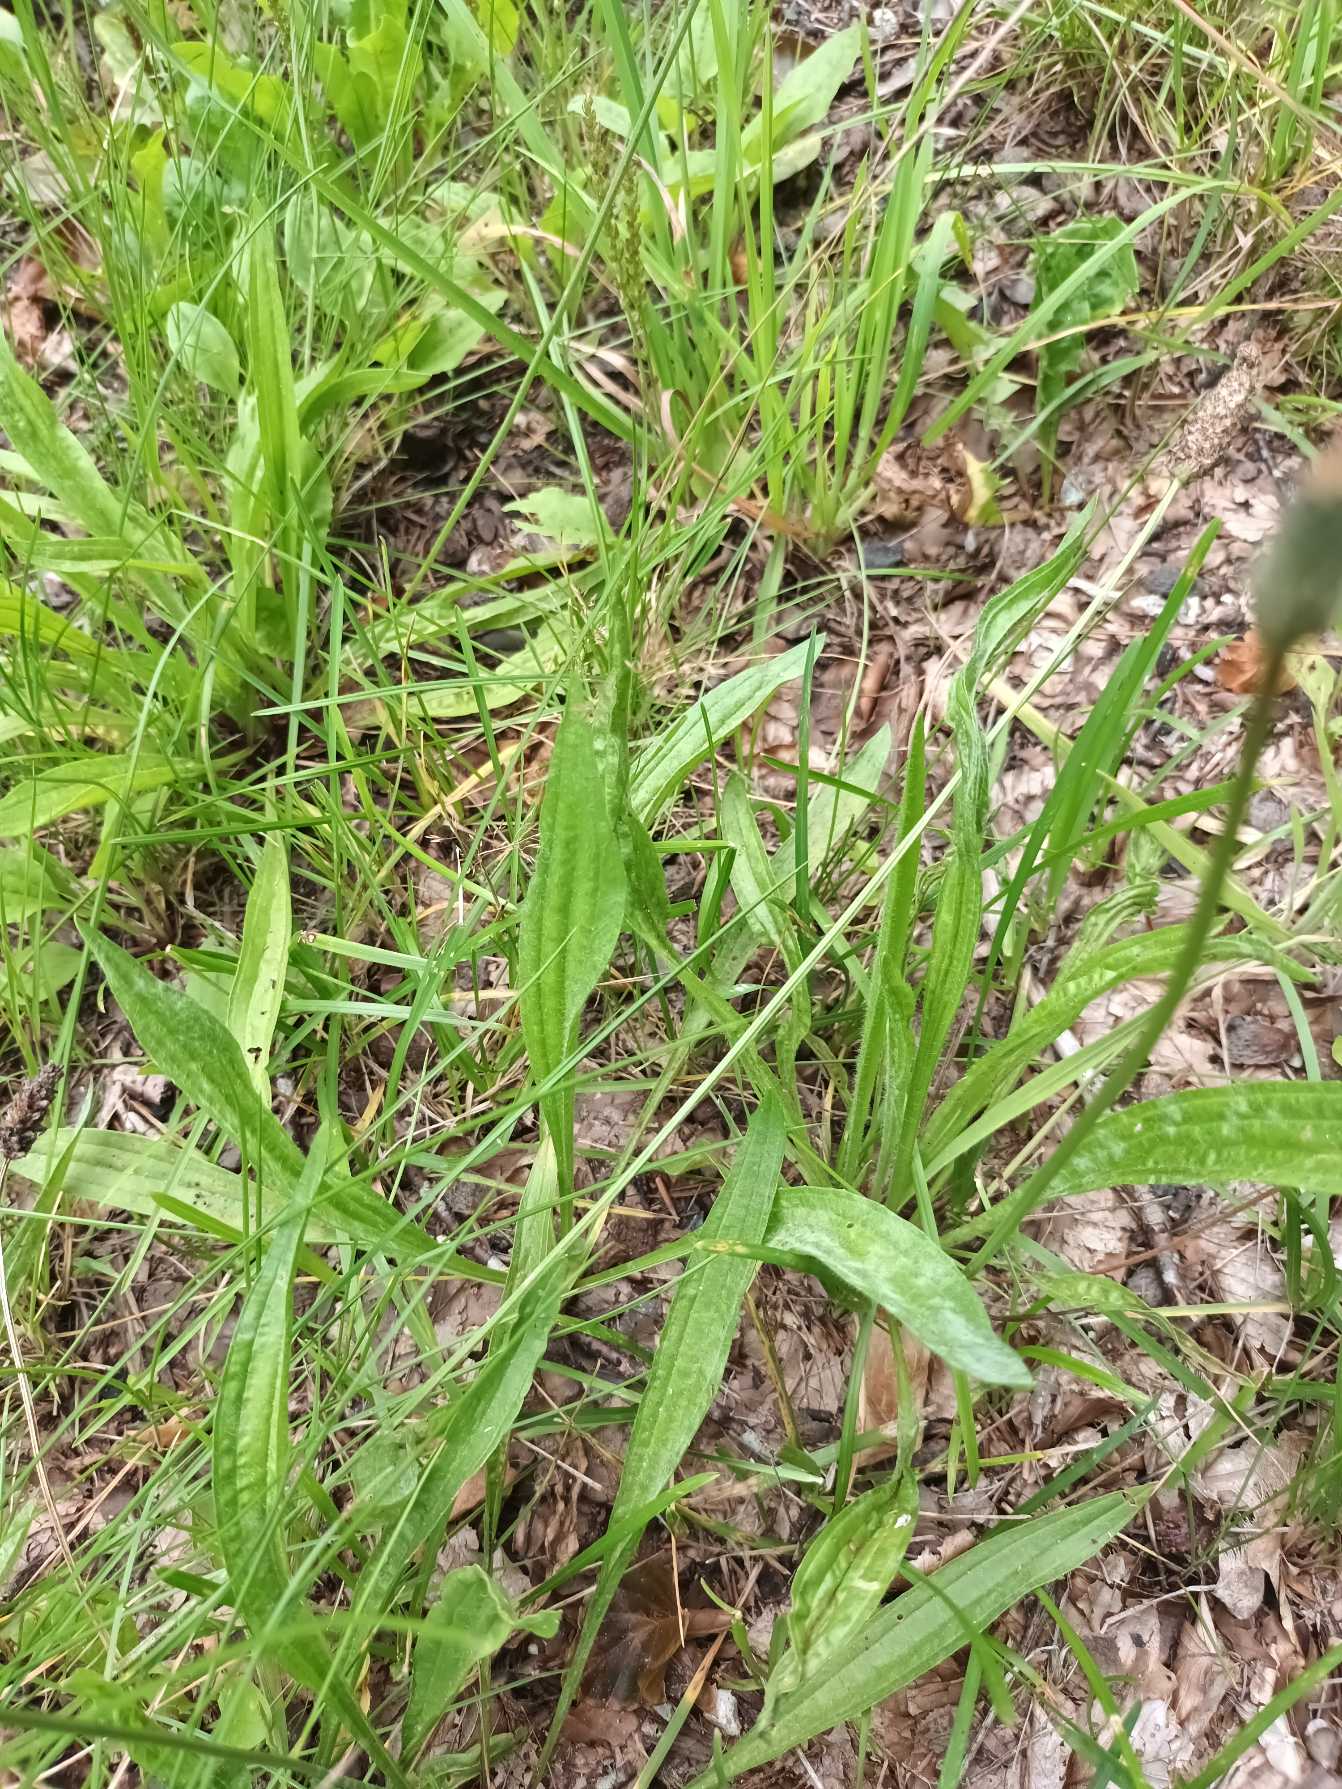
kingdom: Plantae
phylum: Tracheophyta
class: Magnoliopsida
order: Lamiales
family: Plantaginaceae
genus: Plantago
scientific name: Plantago lanceolata
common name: Lancet-vejbred
